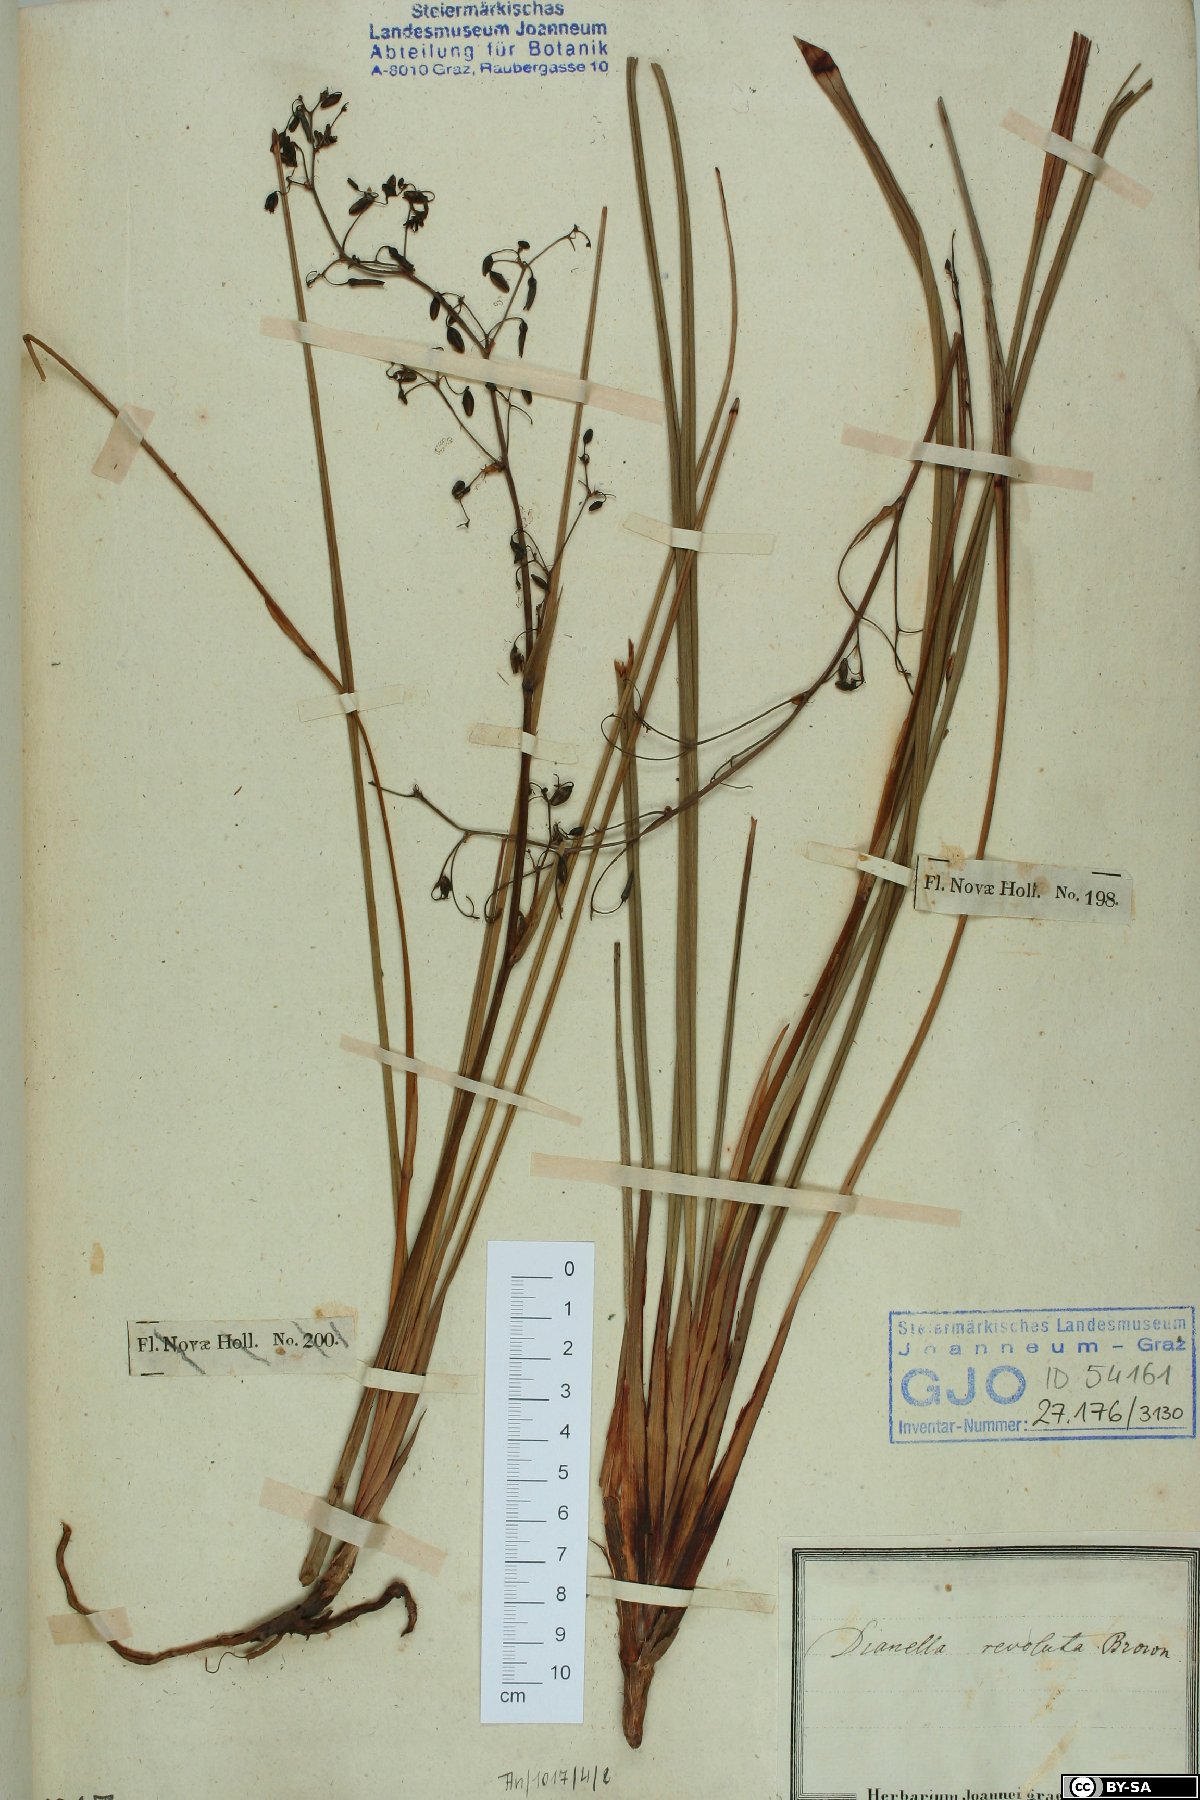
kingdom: Plantae
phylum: Tracheophyta
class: Liliopsida
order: Asparagales
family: Asphodelaceae
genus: Dianella
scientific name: Dianella revoluta
